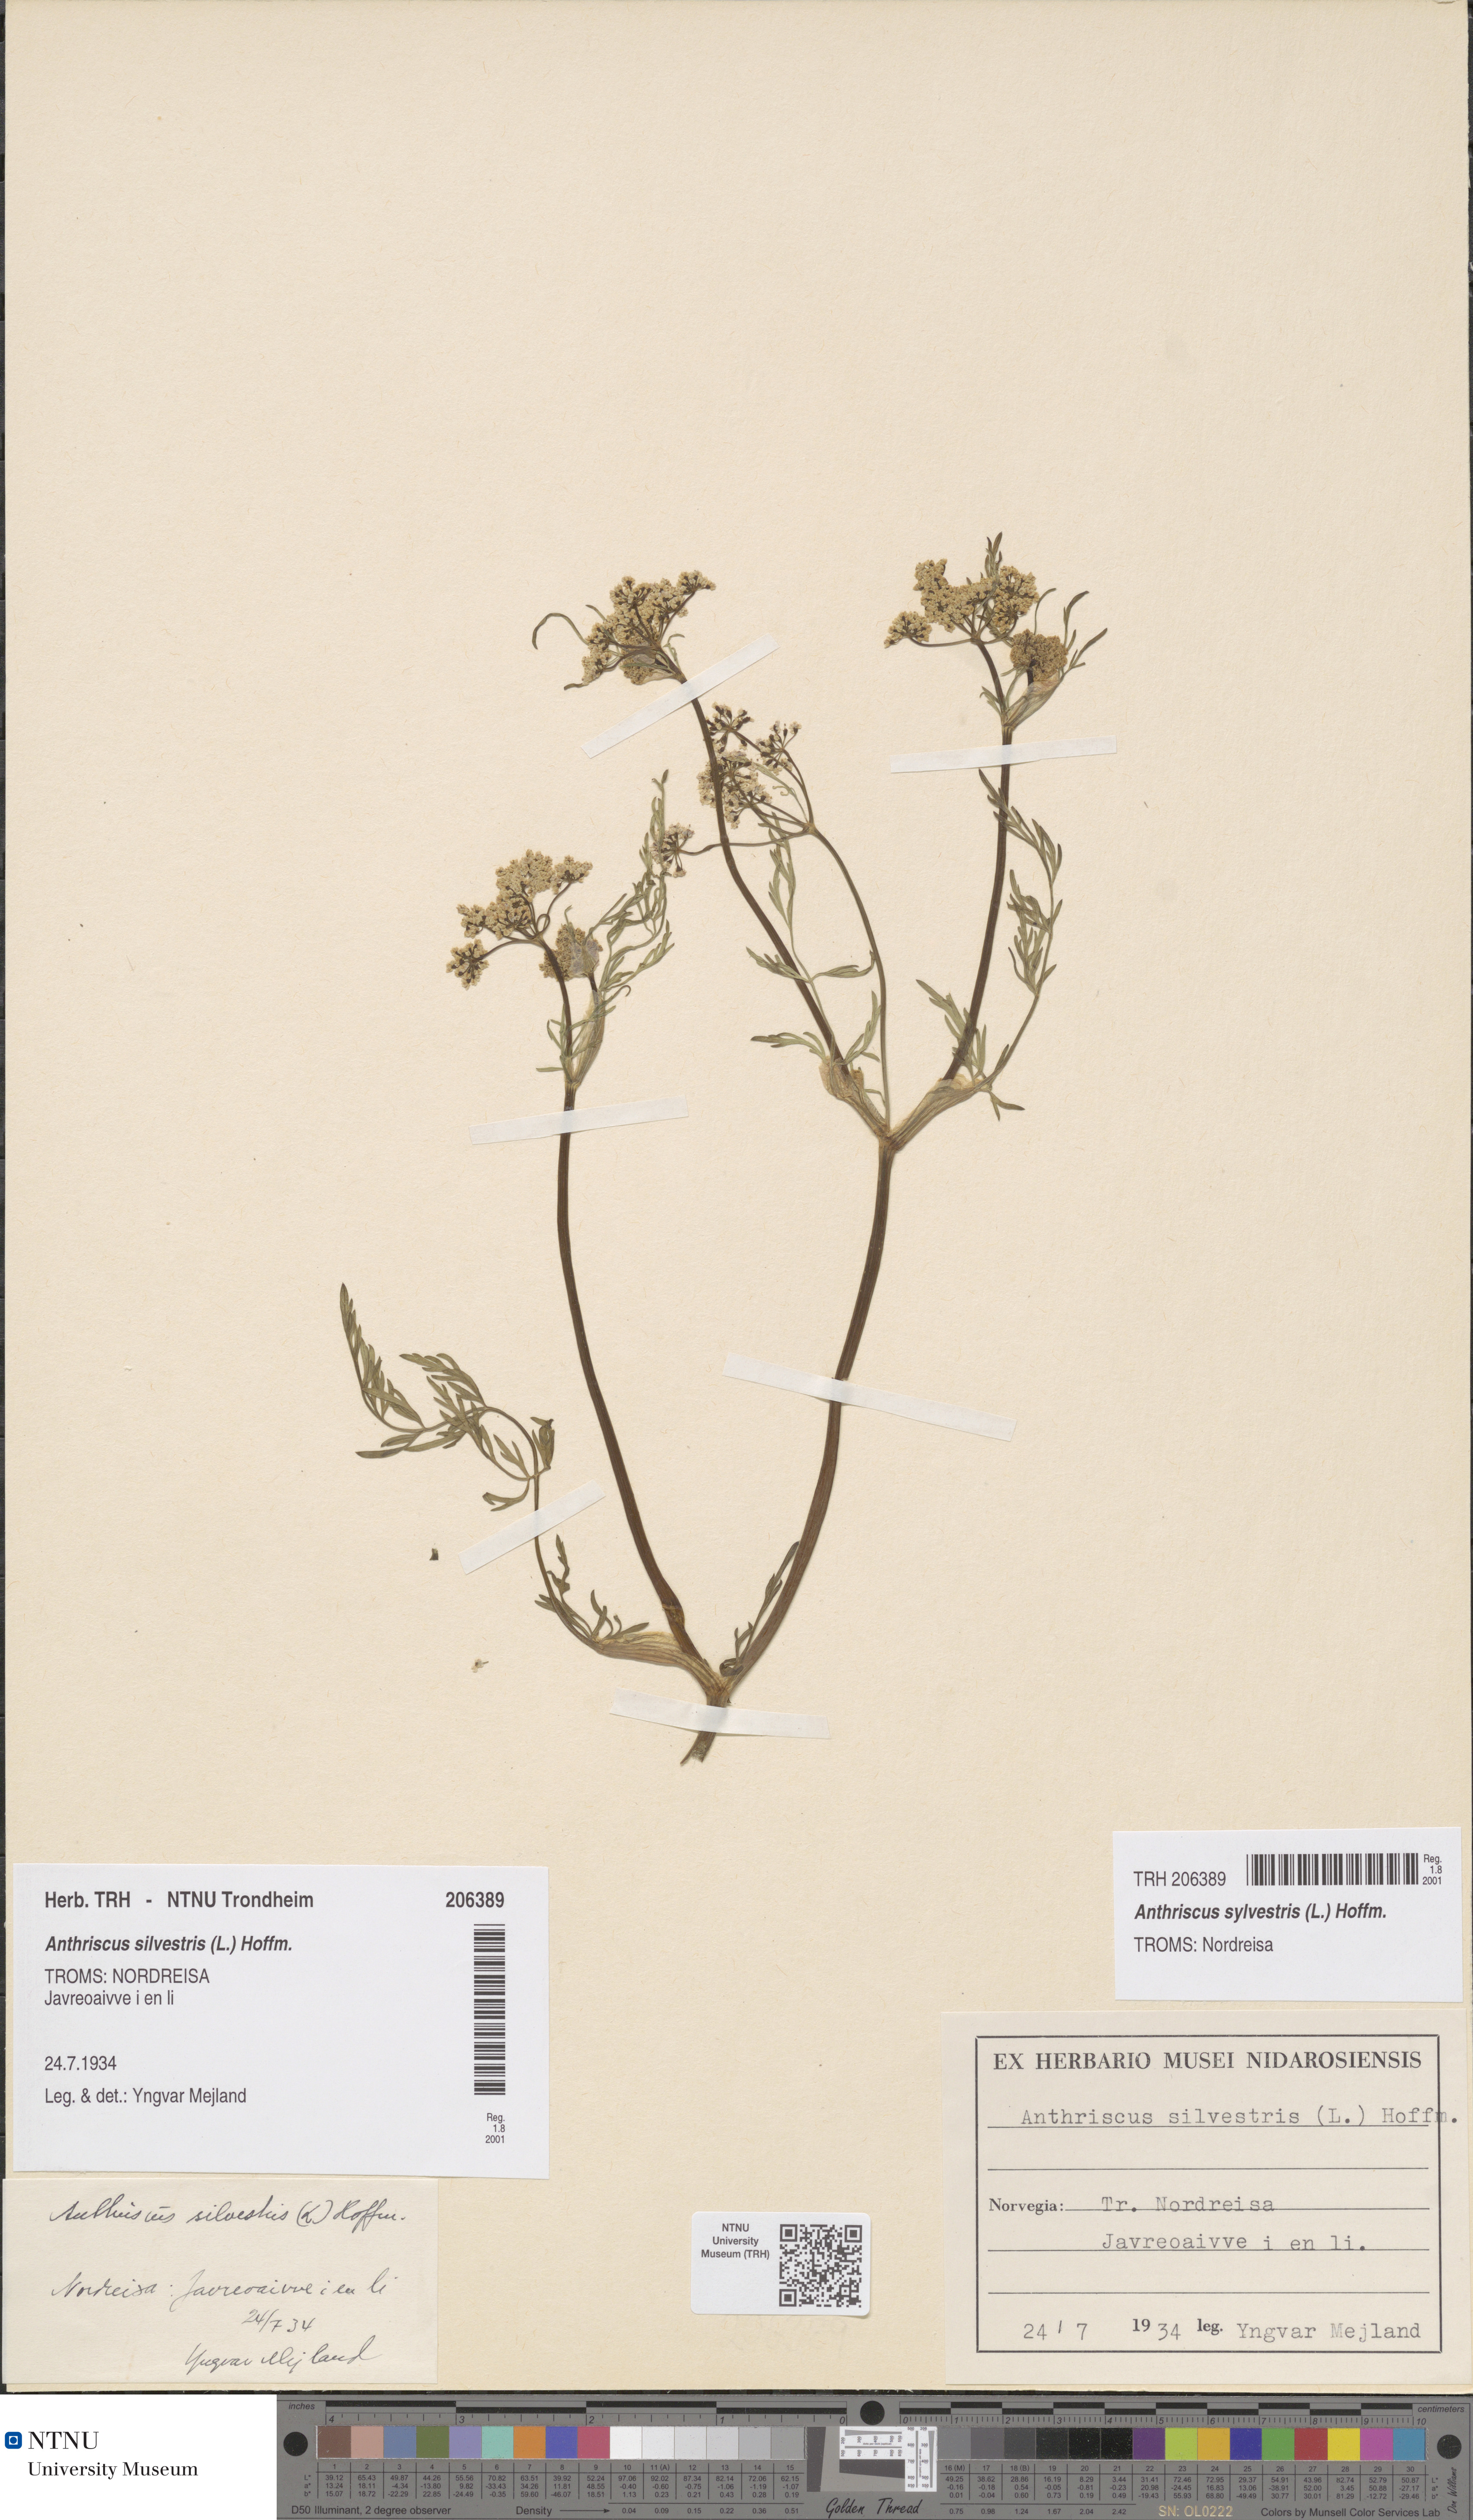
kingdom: Plantae
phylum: Tracheophyta
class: Magnoliopsida
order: Apiales
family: Apiaceae
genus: Anthriscus
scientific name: Anthriscus sylvestris
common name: Cow parsley
